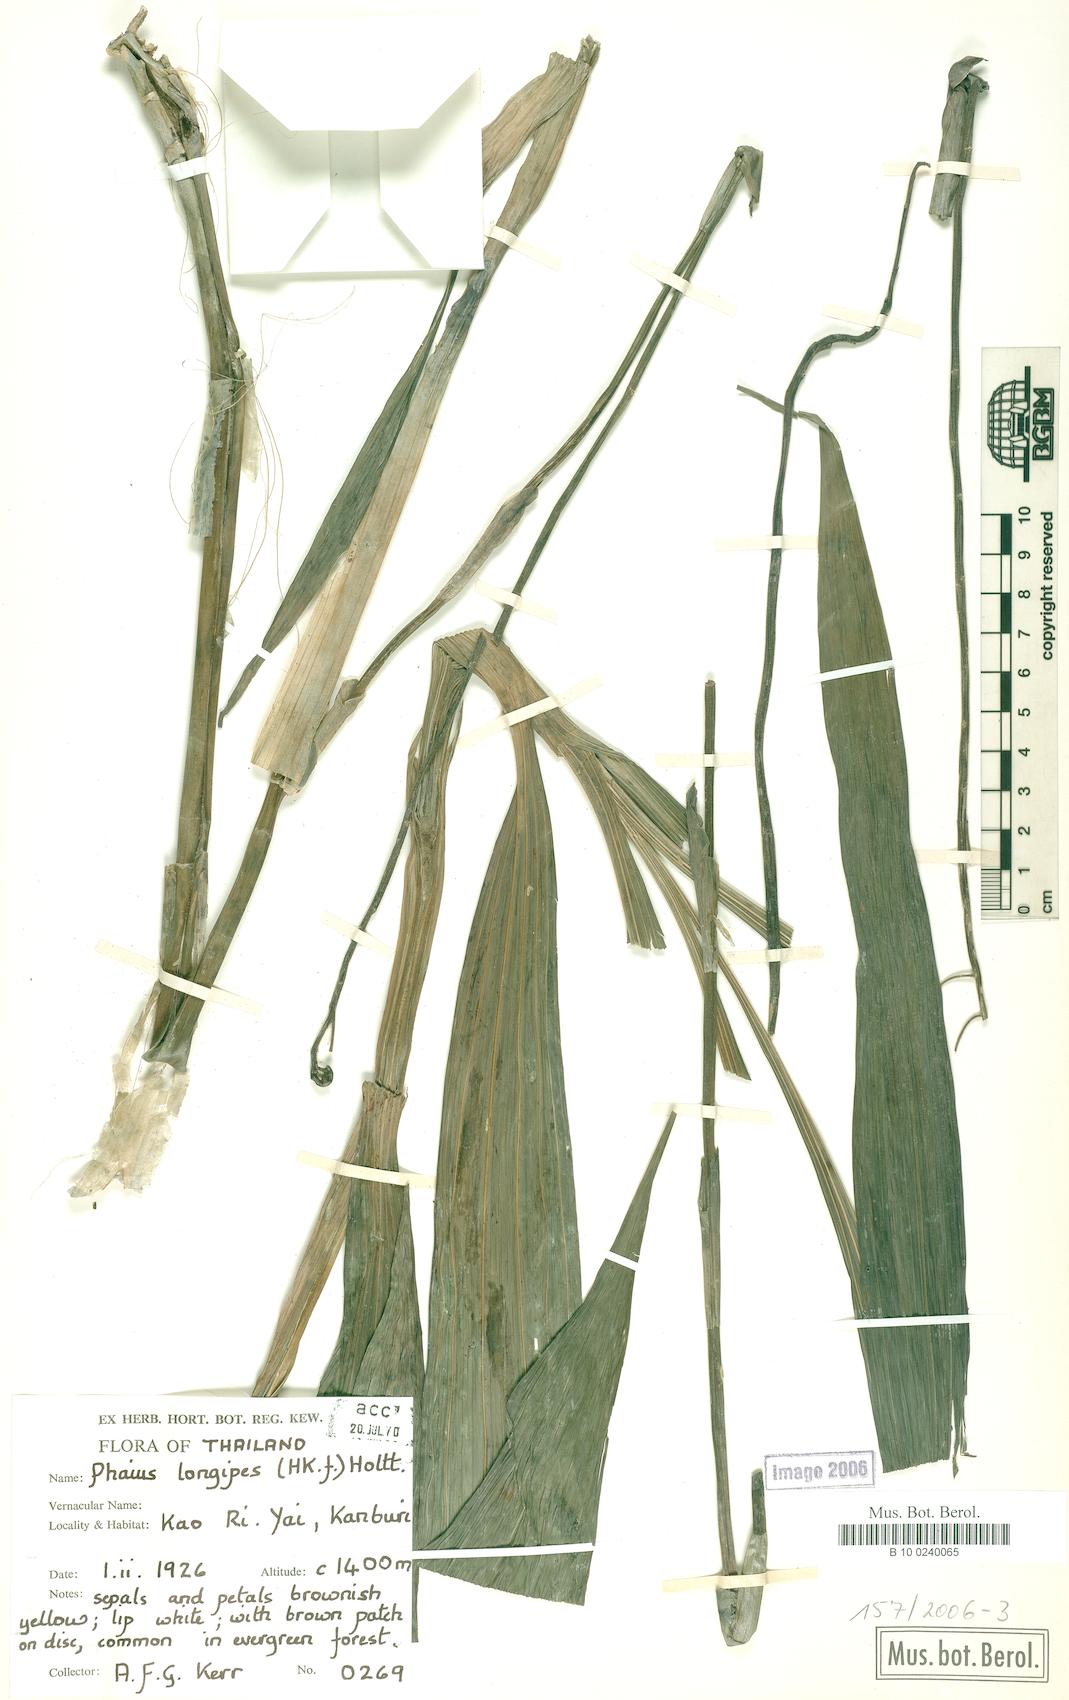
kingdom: Plantae
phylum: Tracheophyta
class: Liliopsida
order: Asparagales
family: Orchidaceae
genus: Calanthe
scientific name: Calanthe longipes
